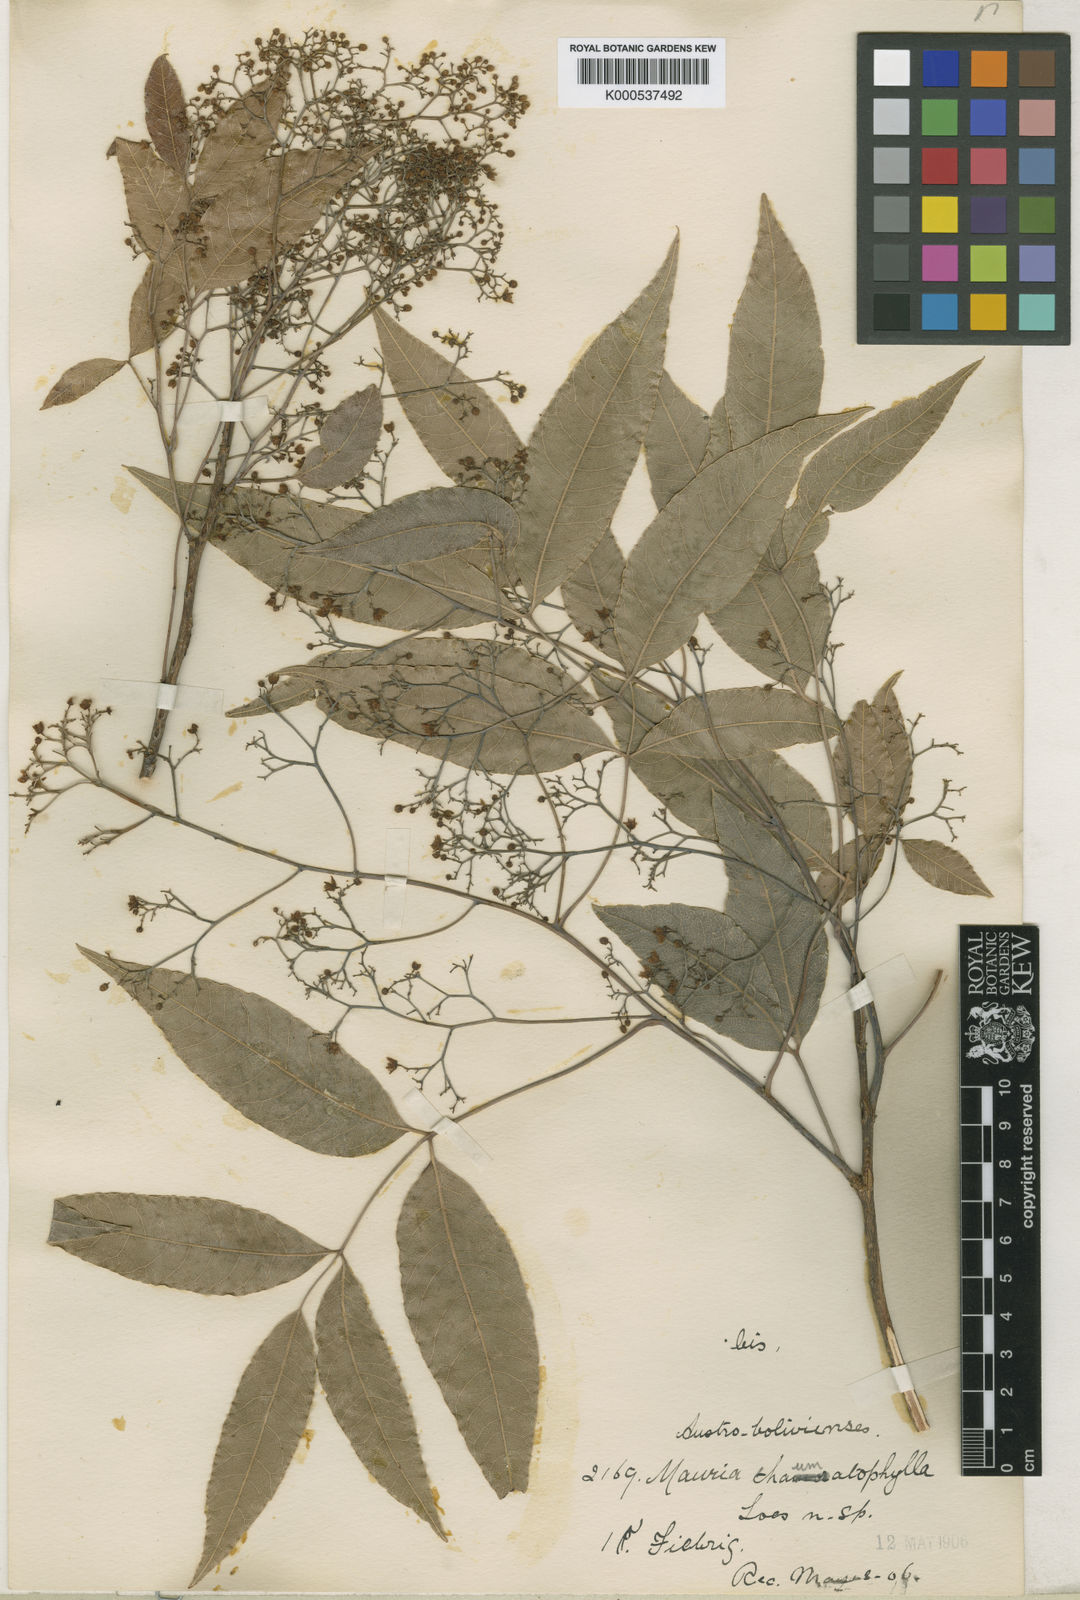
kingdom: Plantae
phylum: Tracheophyta
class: Magnoliopsida
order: Sapindales
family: Anacardiaceae
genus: Mauria
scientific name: Mauria thaumatophylla
